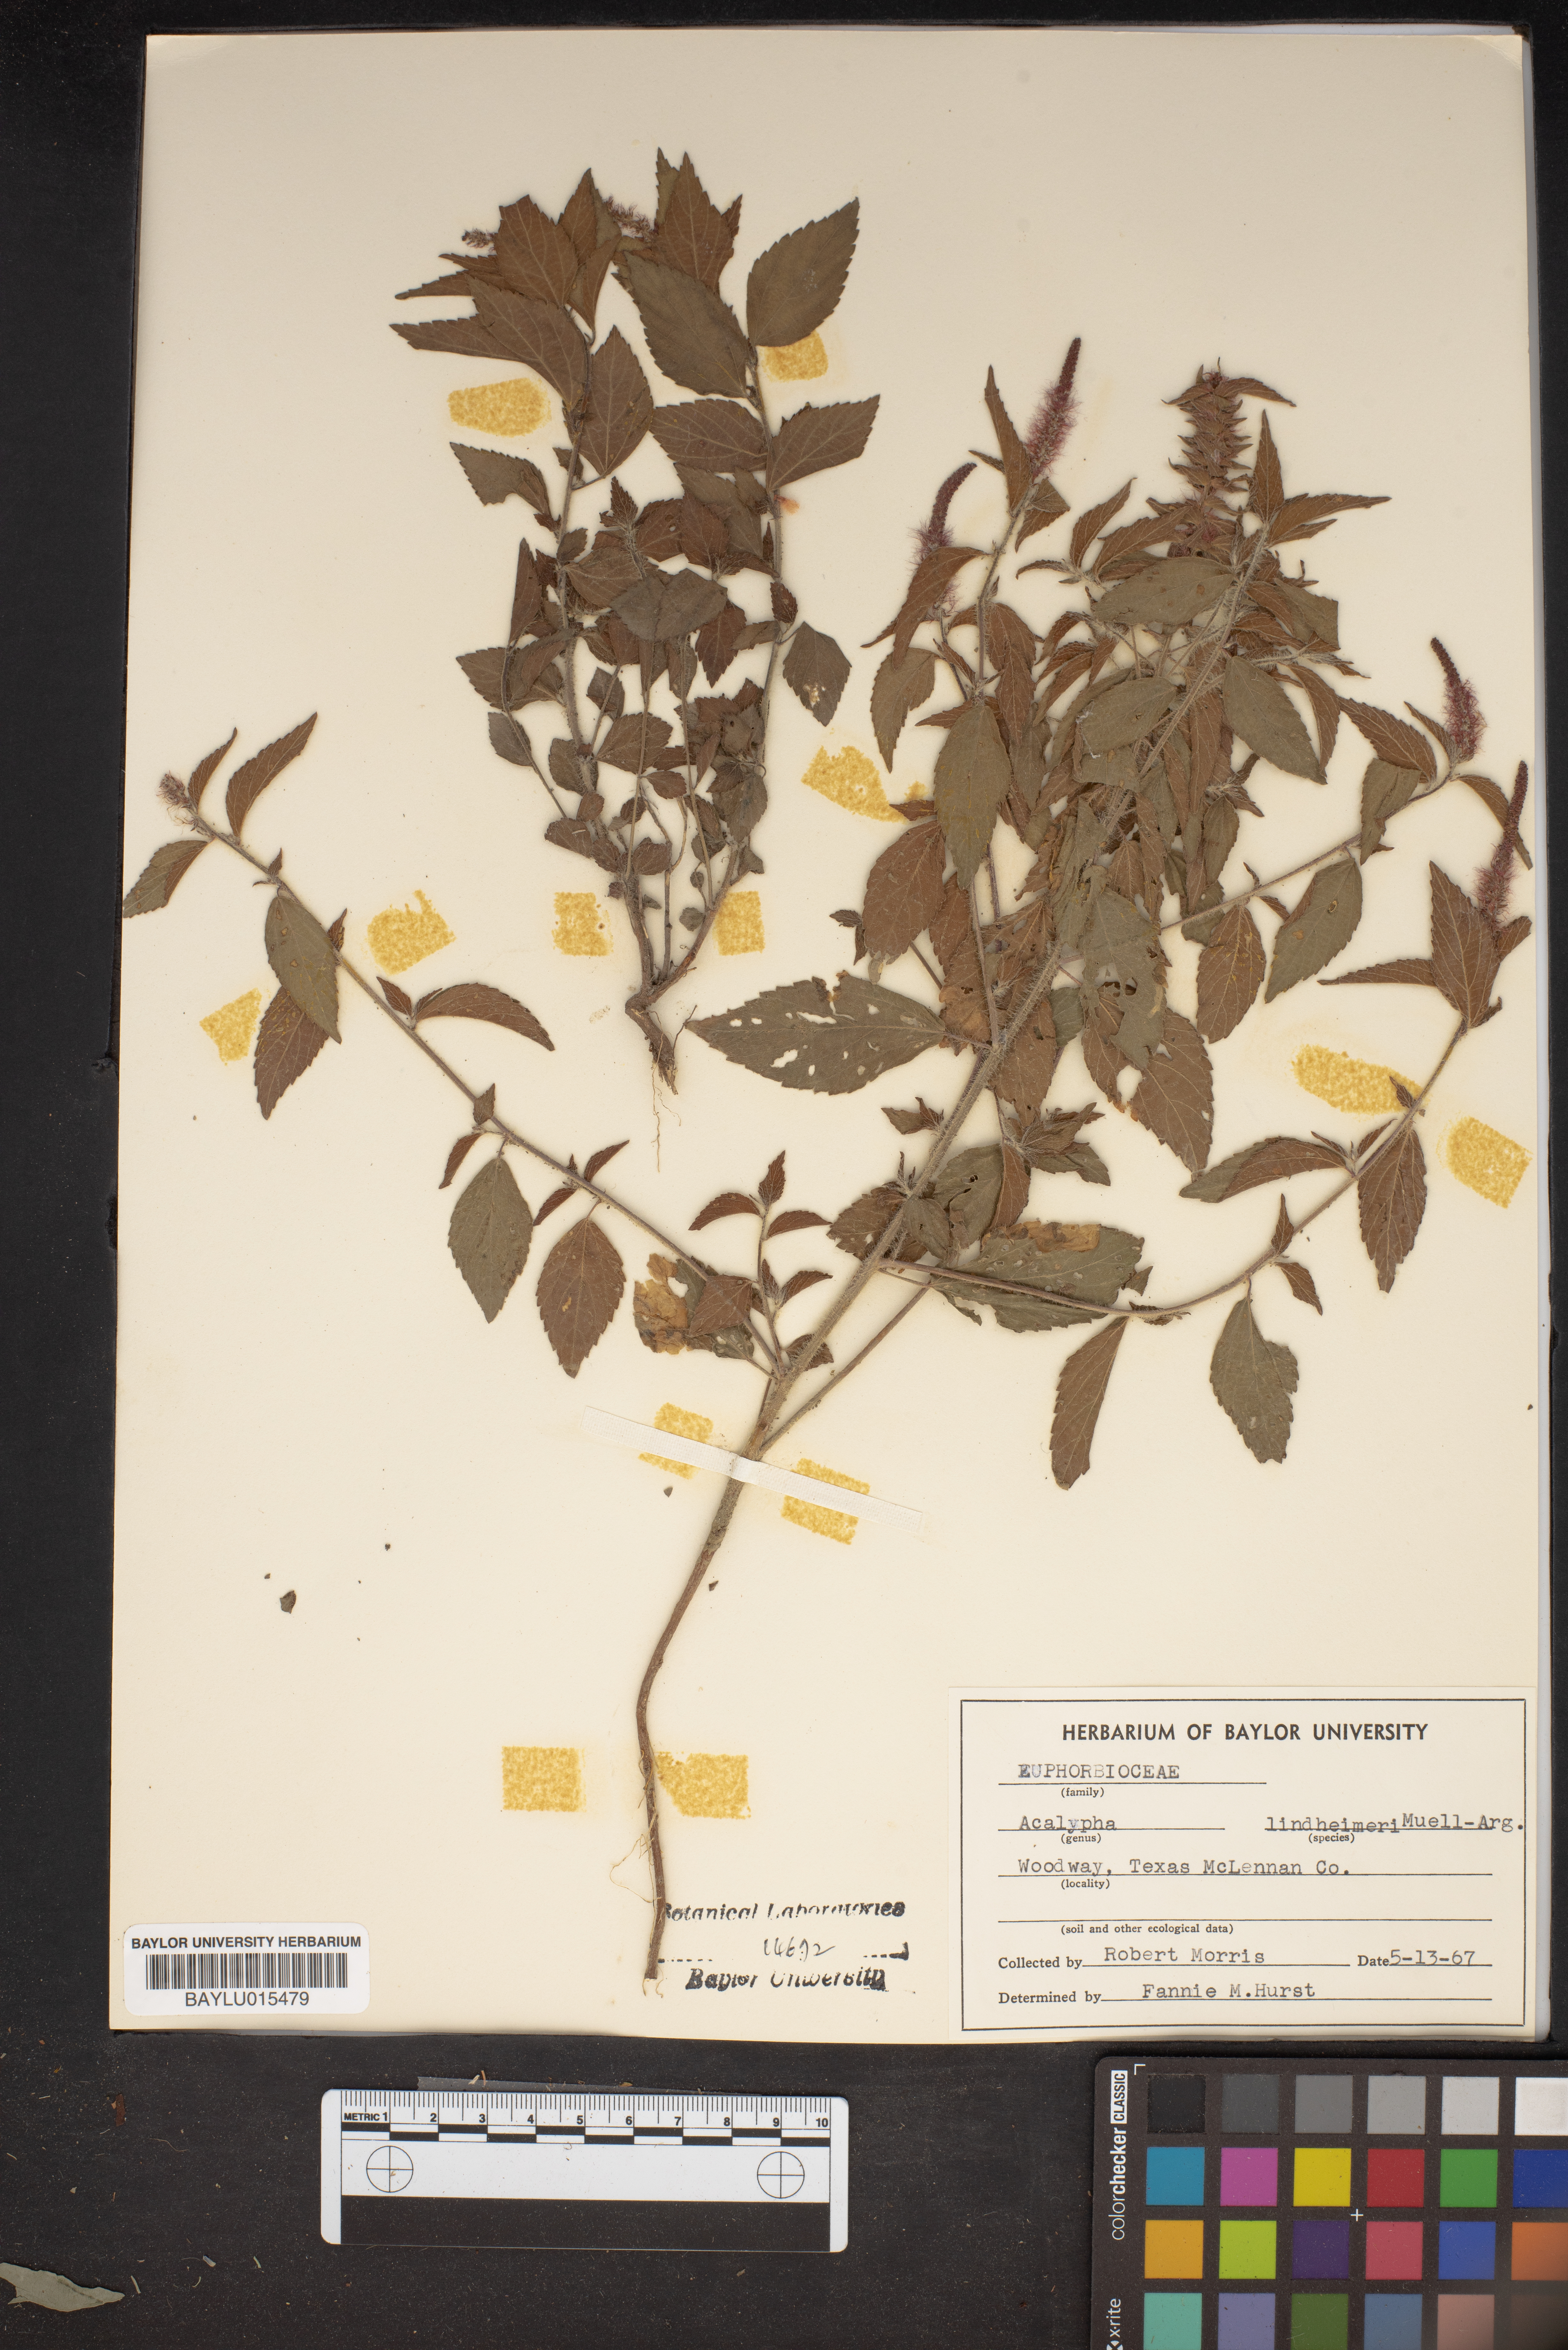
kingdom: Plantae
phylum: Tracheophyta
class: Magnoliopsida
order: Malpighiales
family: Euphorbiaceae
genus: Acalypha
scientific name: Acalypha phleoides
